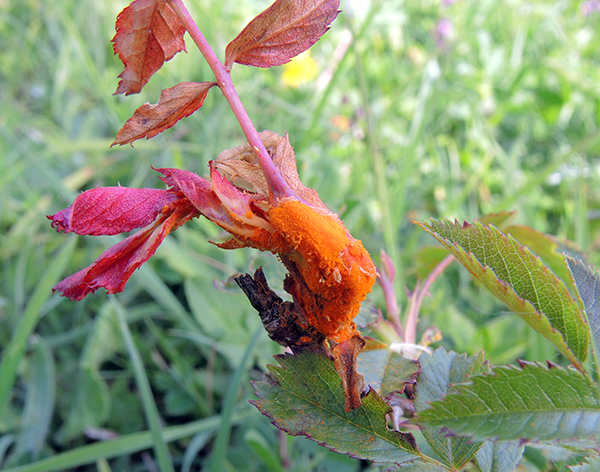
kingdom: Fungi
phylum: Basidiomycota
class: Pucciniomycetes
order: Pucciniales
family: Phragmidiaceae
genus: Phragmidium
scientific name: Phragmidium mucronatum
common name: rose-flercellerust
